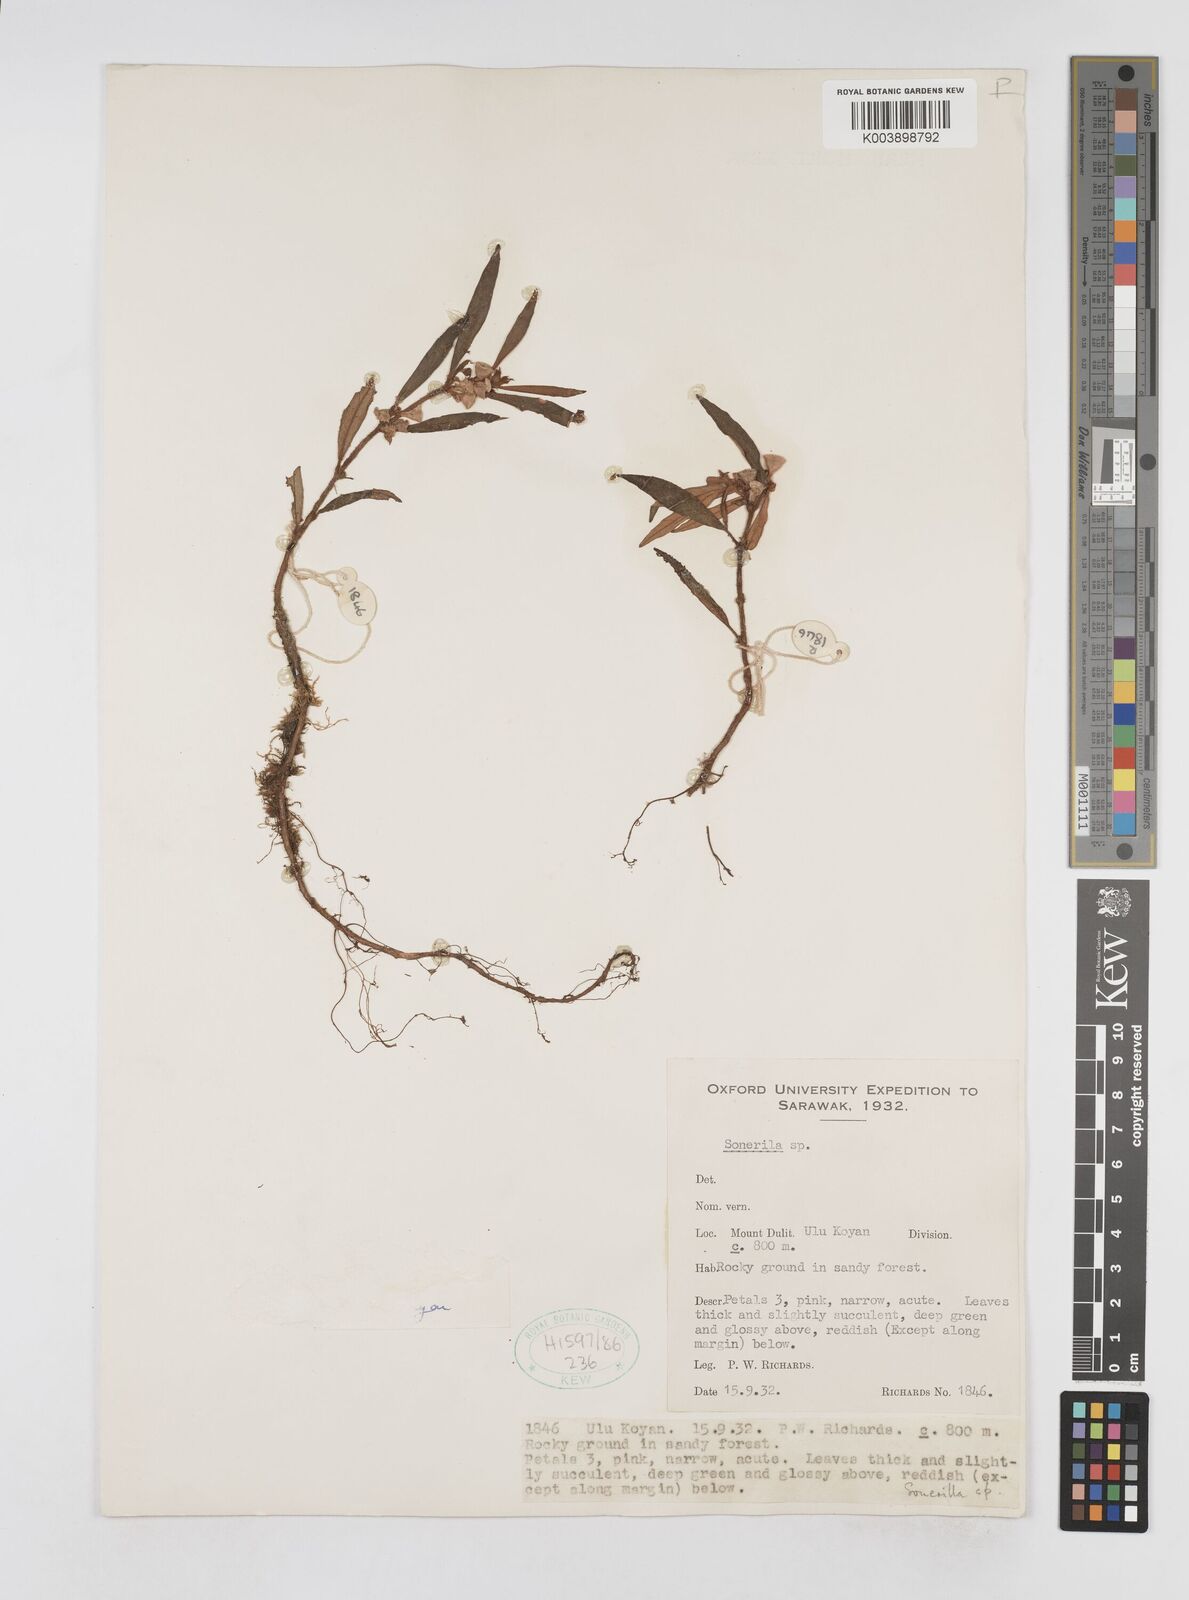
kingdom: Plantae
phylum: Tracheophyta
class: Magnoliopsida
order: Myrtales
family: Melastomataceae
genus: Sonerila
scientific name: Sonerila
